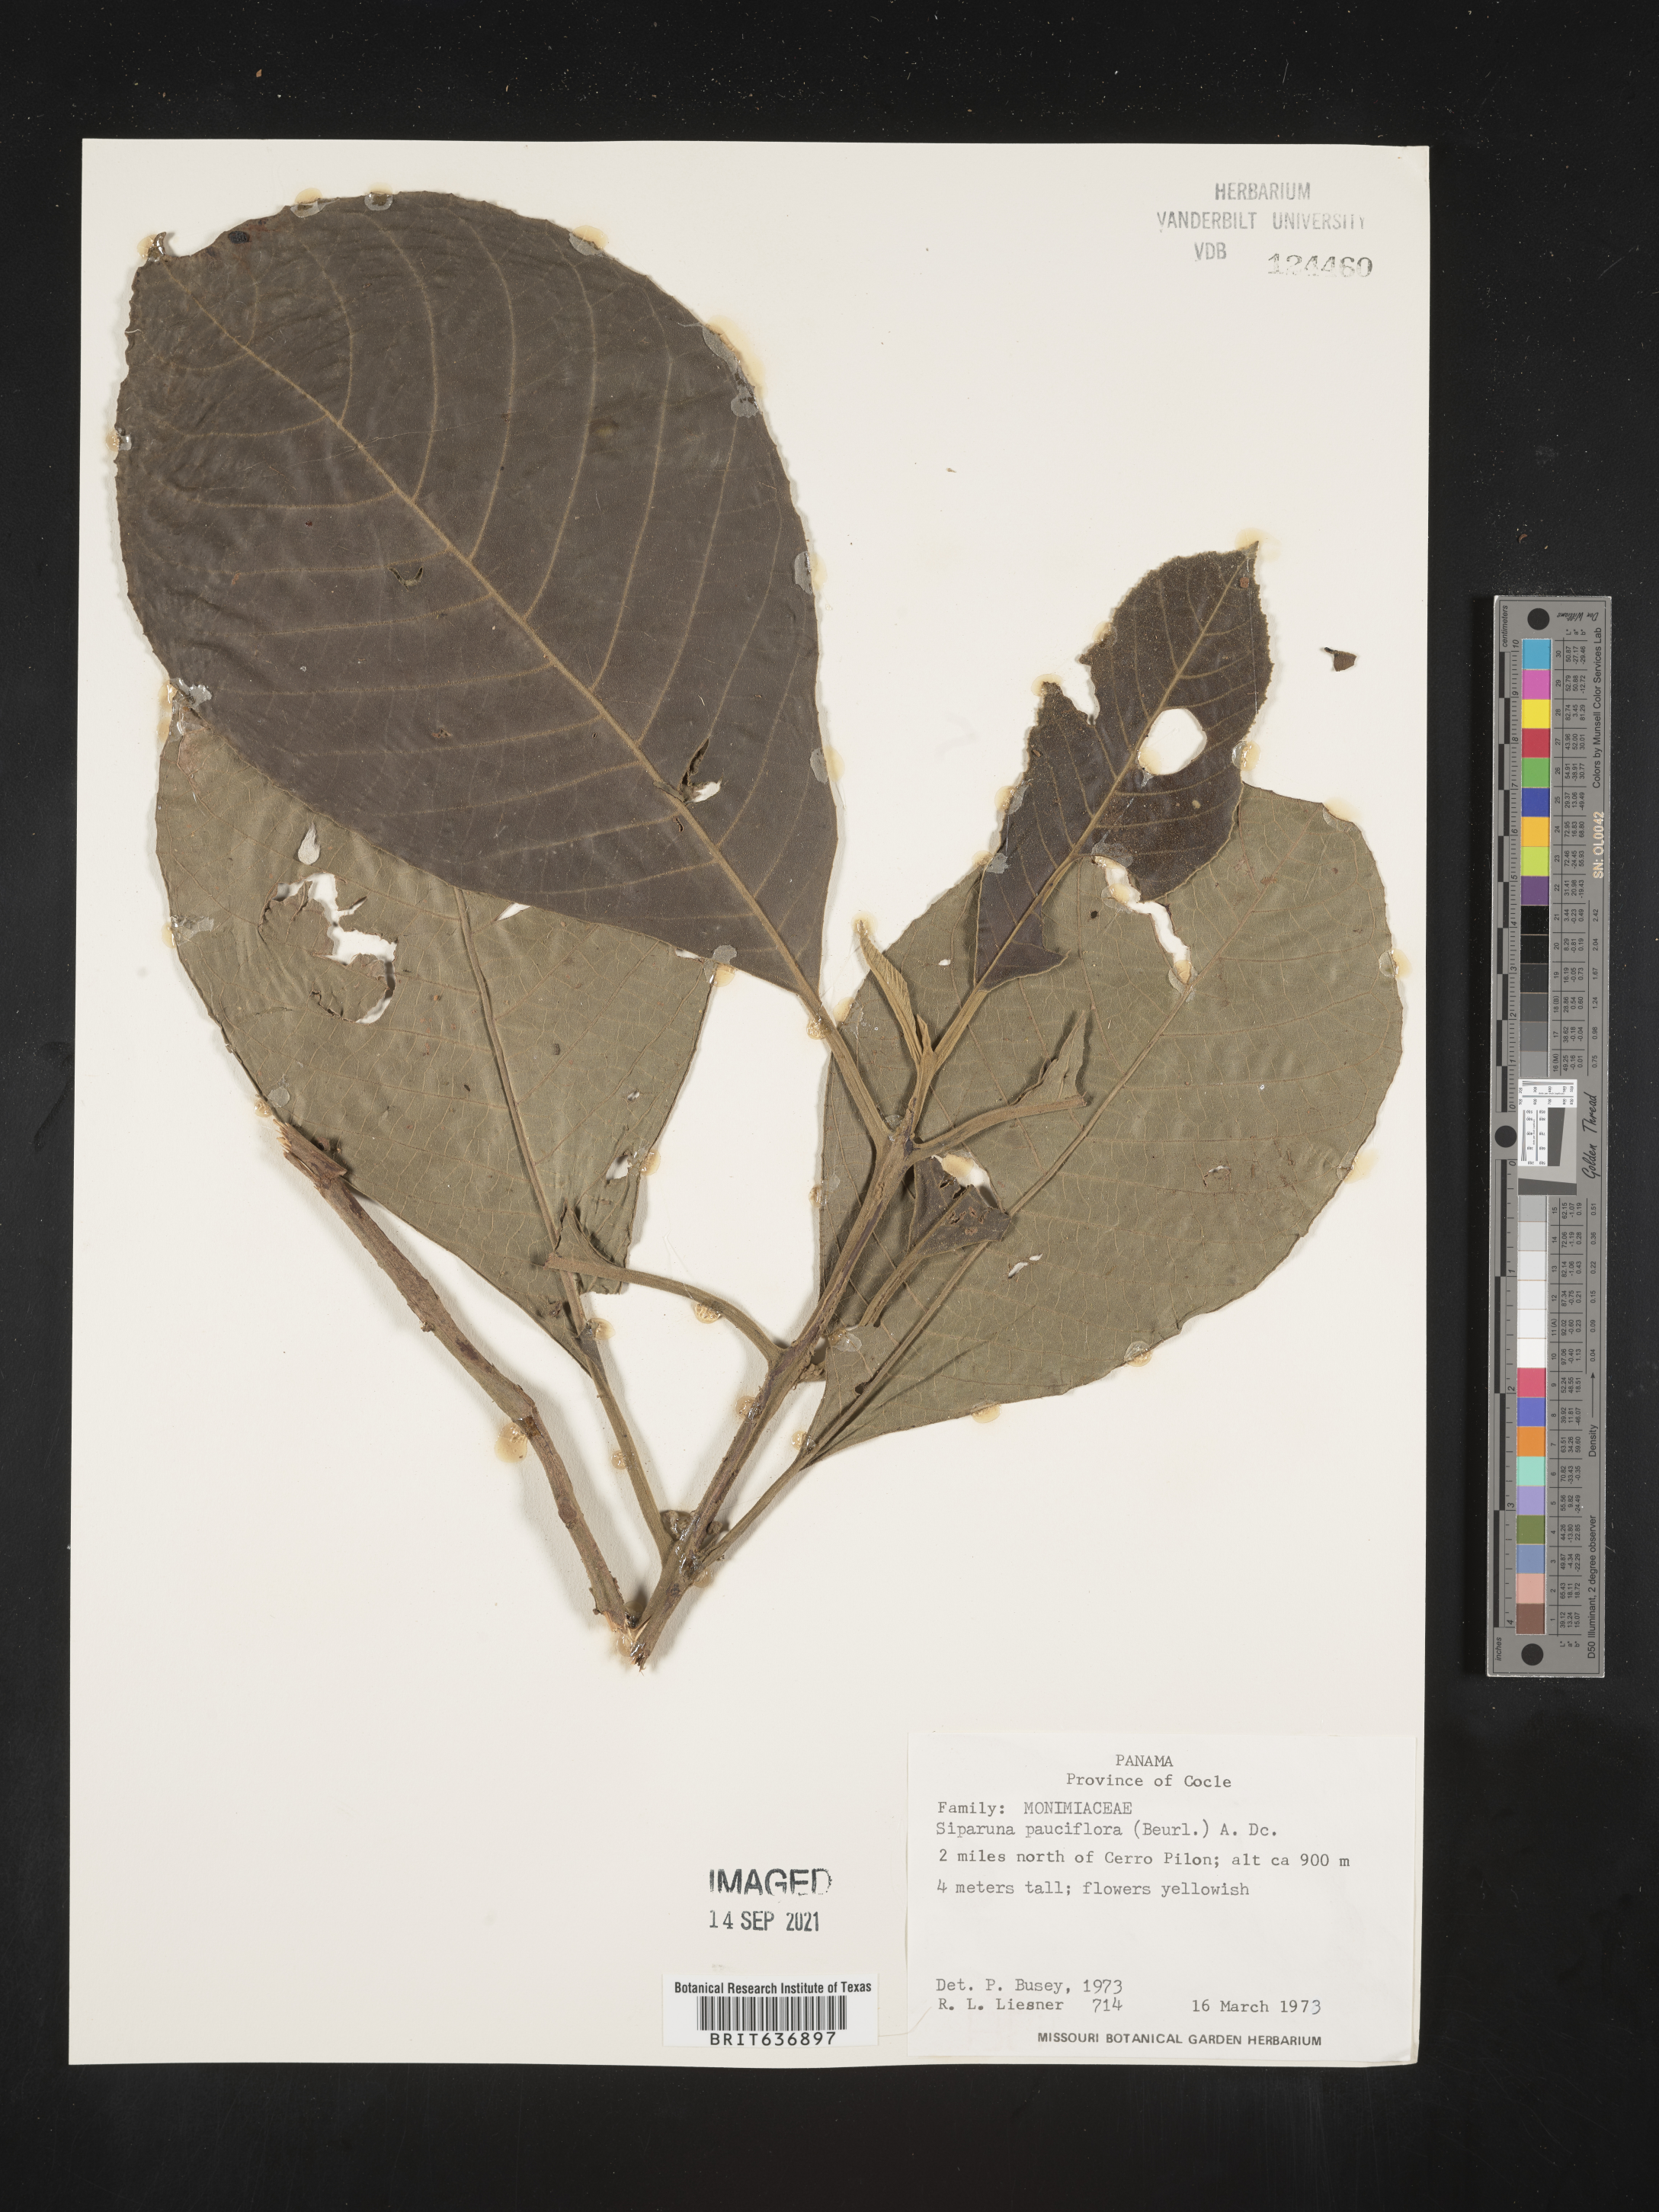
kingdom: Plantae
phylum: Tracheophyta
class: Magnoliopsida
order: Laurales
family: Siparunaceae
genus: Siparuna
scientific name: Siparuna
